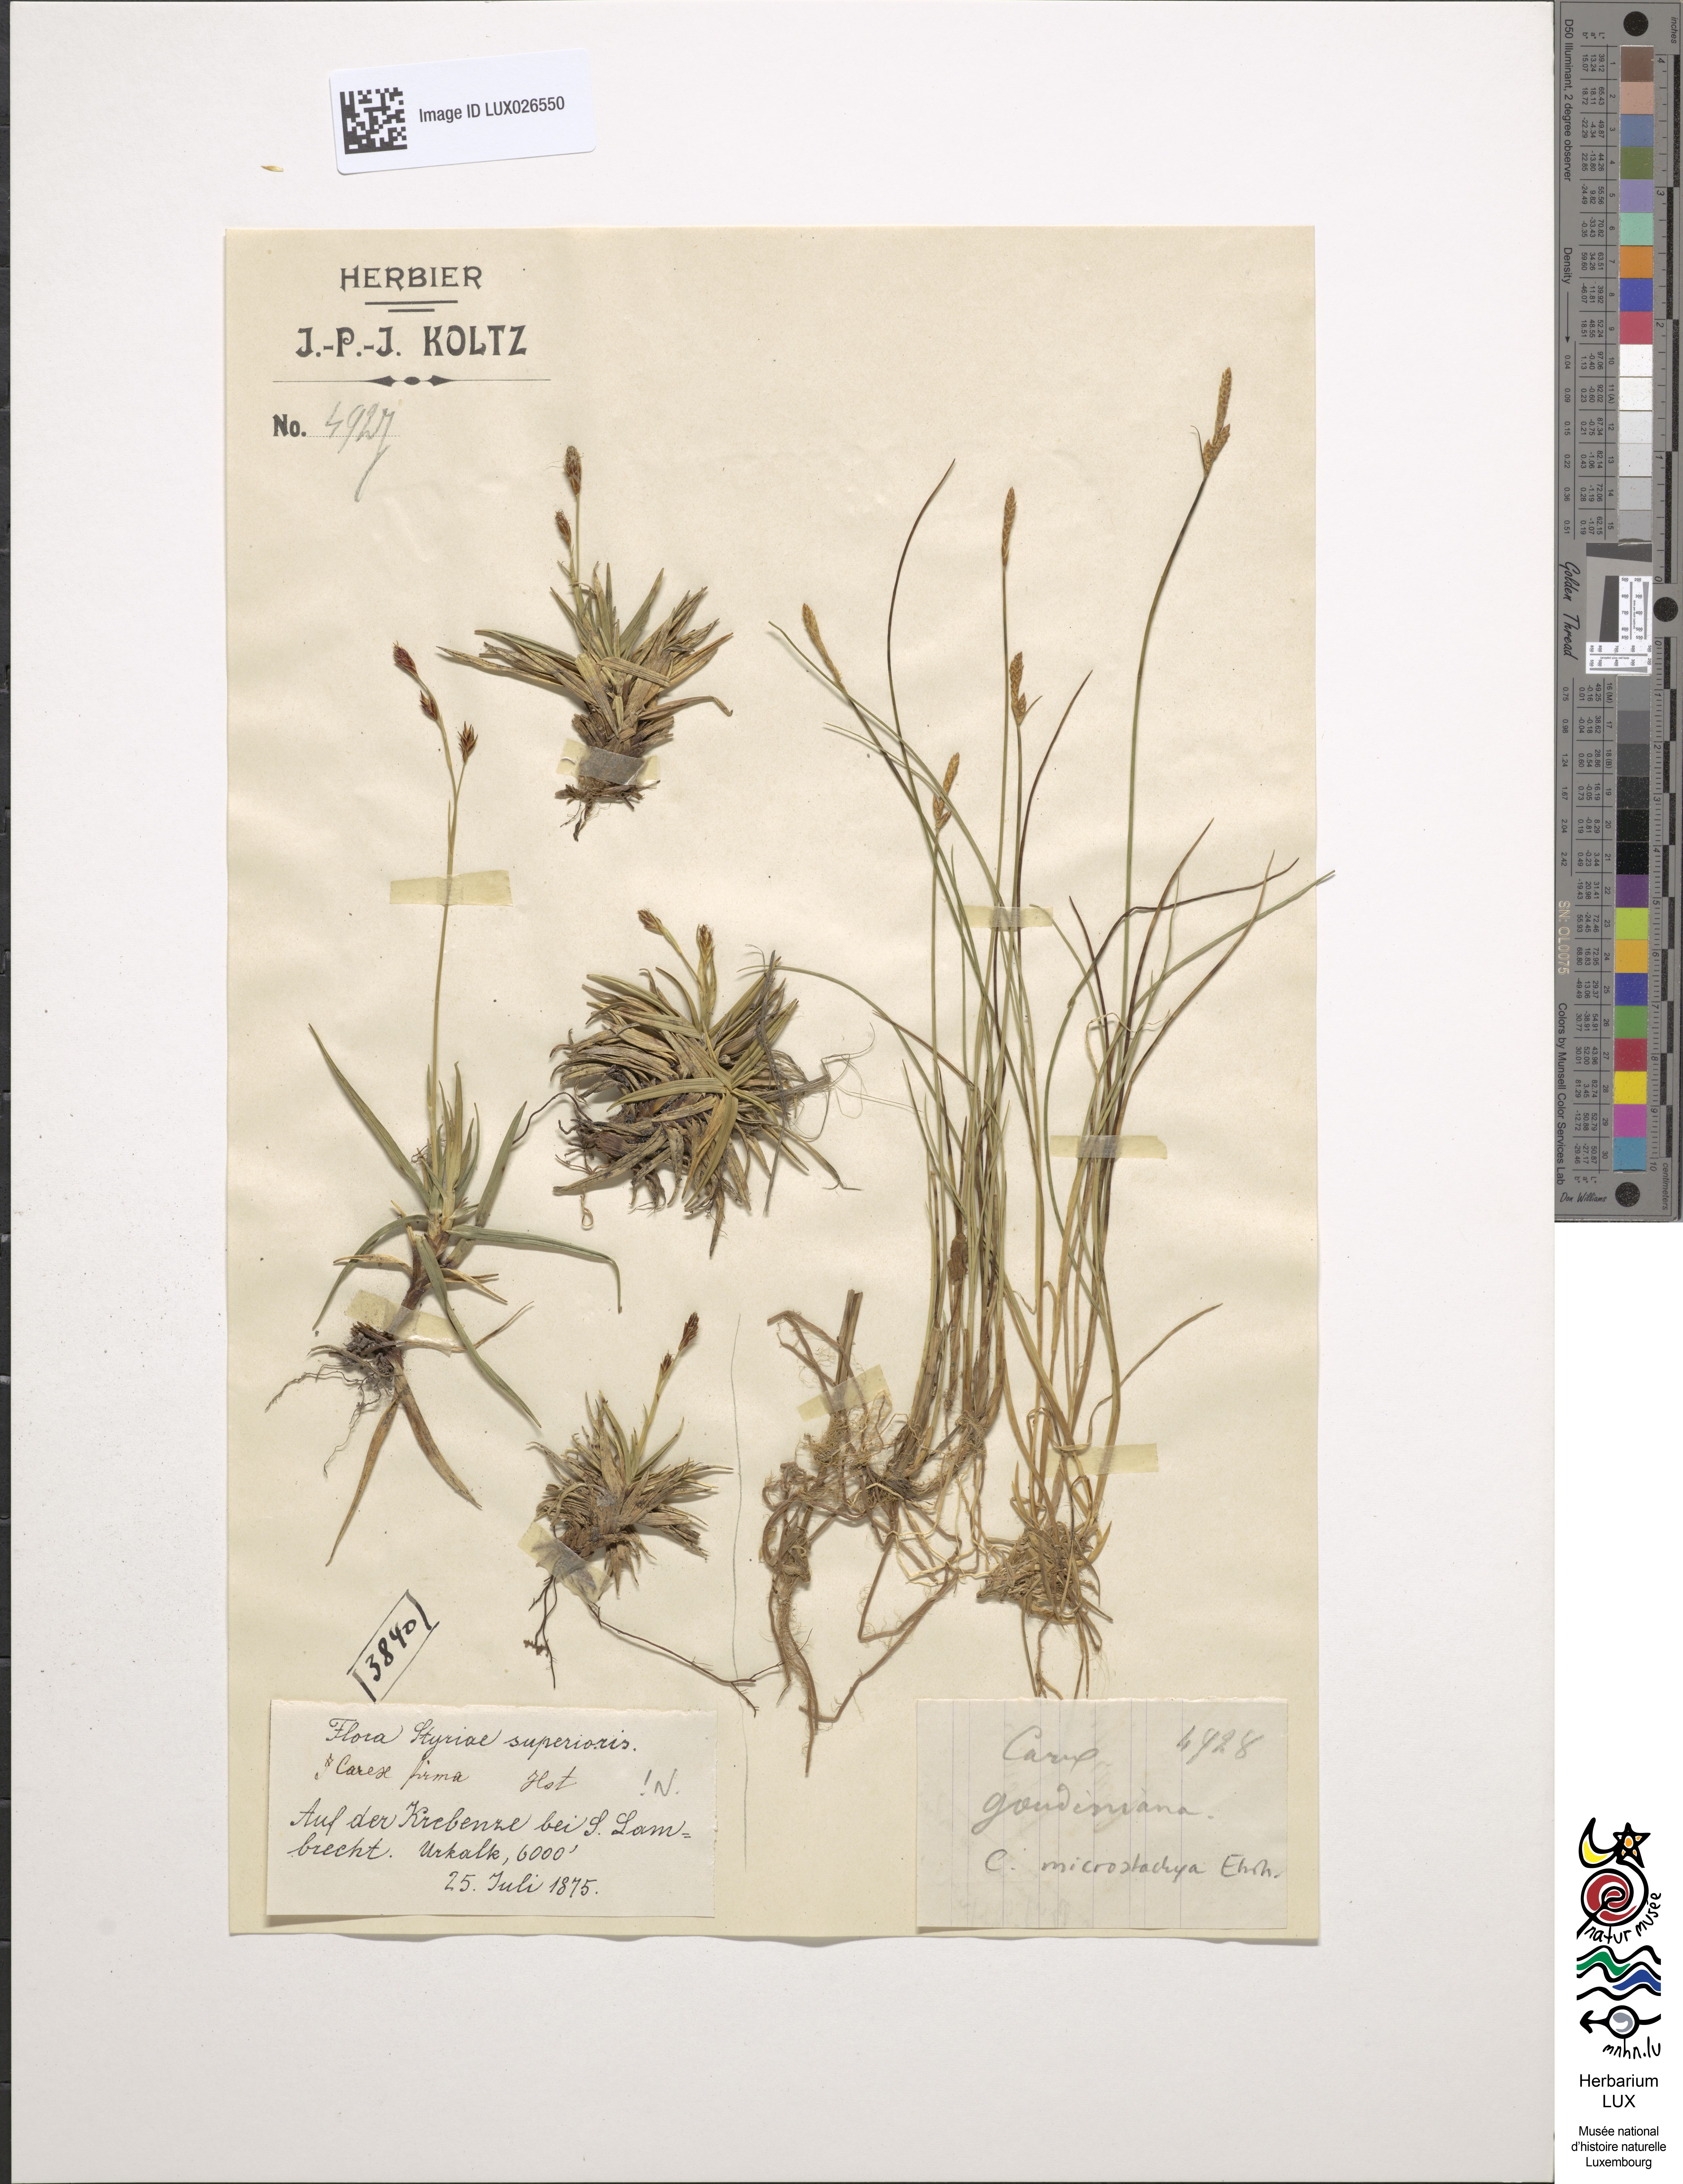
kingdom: Plantae
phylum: Tracheophyta
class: Liliopsida
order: Poales
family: Cyperaceae
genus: Carex
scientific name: Carex firma
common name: Dwarf pillow sedge
